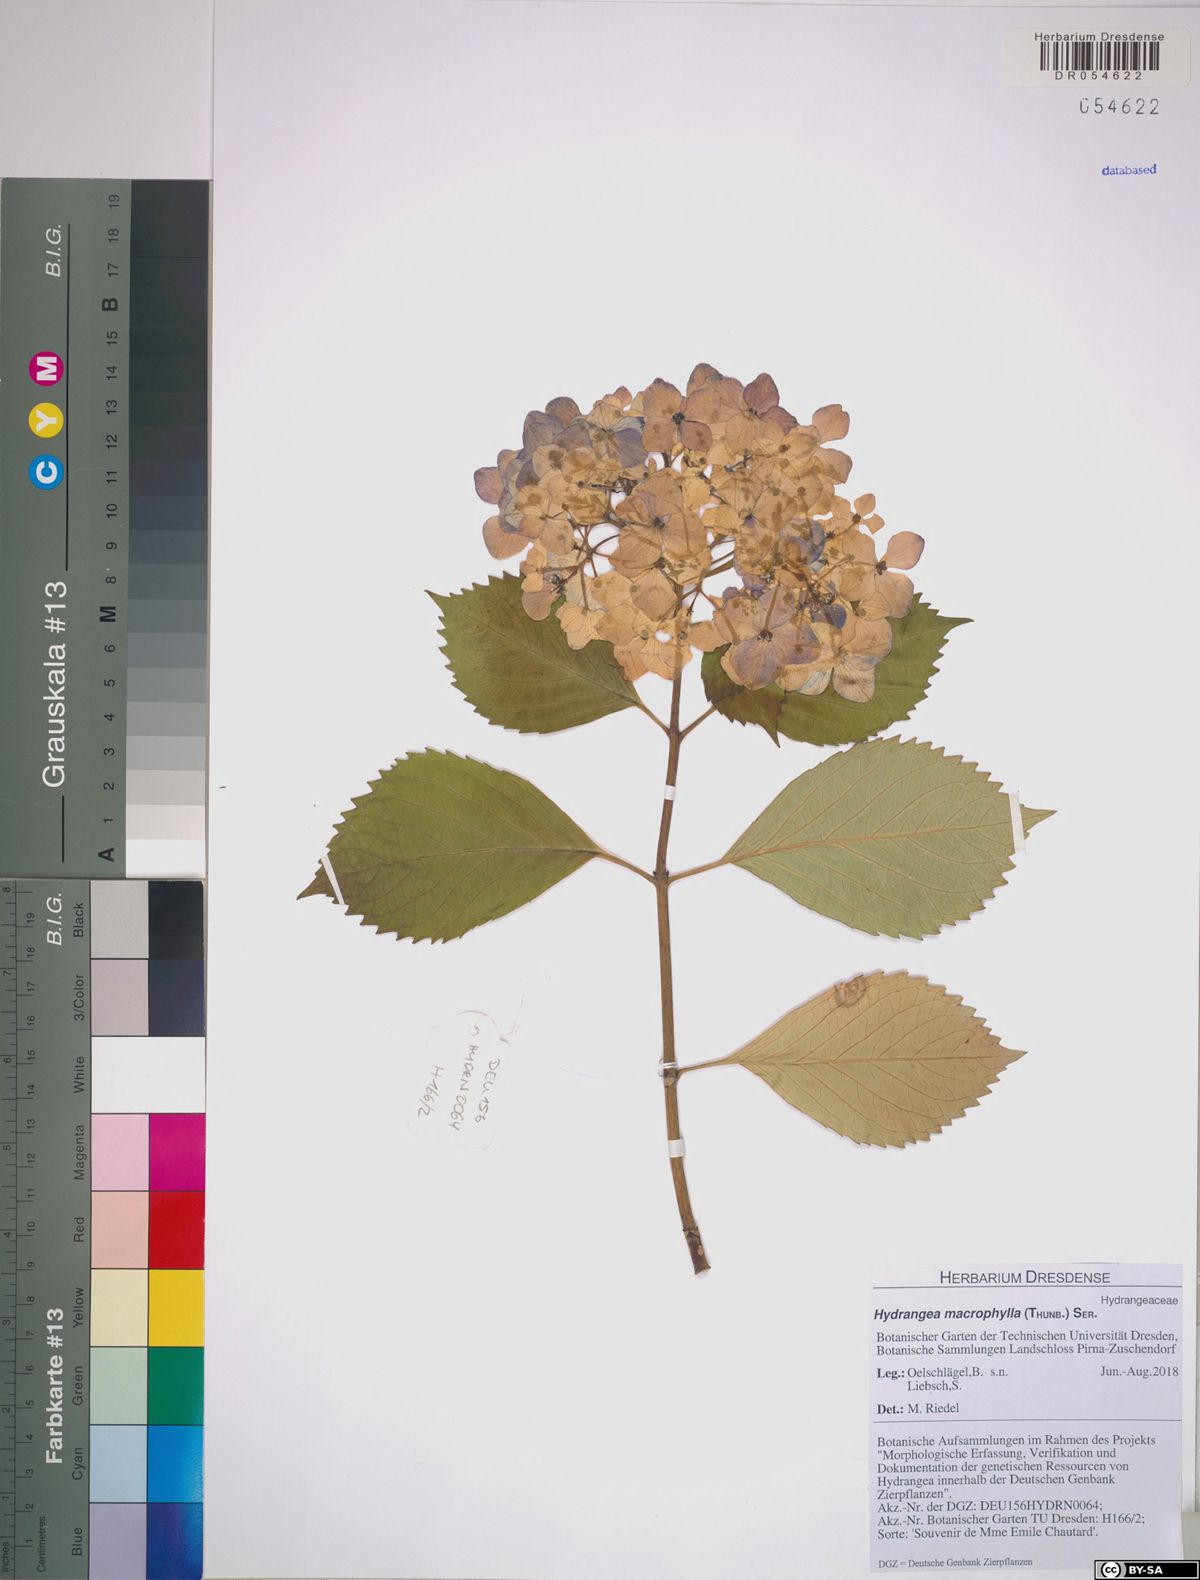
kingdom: Plantae
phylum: Tracheophyta
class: Magnoliopsida
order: Cornales
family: Hydrangeaceae
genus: Hydrangea
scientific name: Hydrangea macrophylla
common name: Hydrangea
